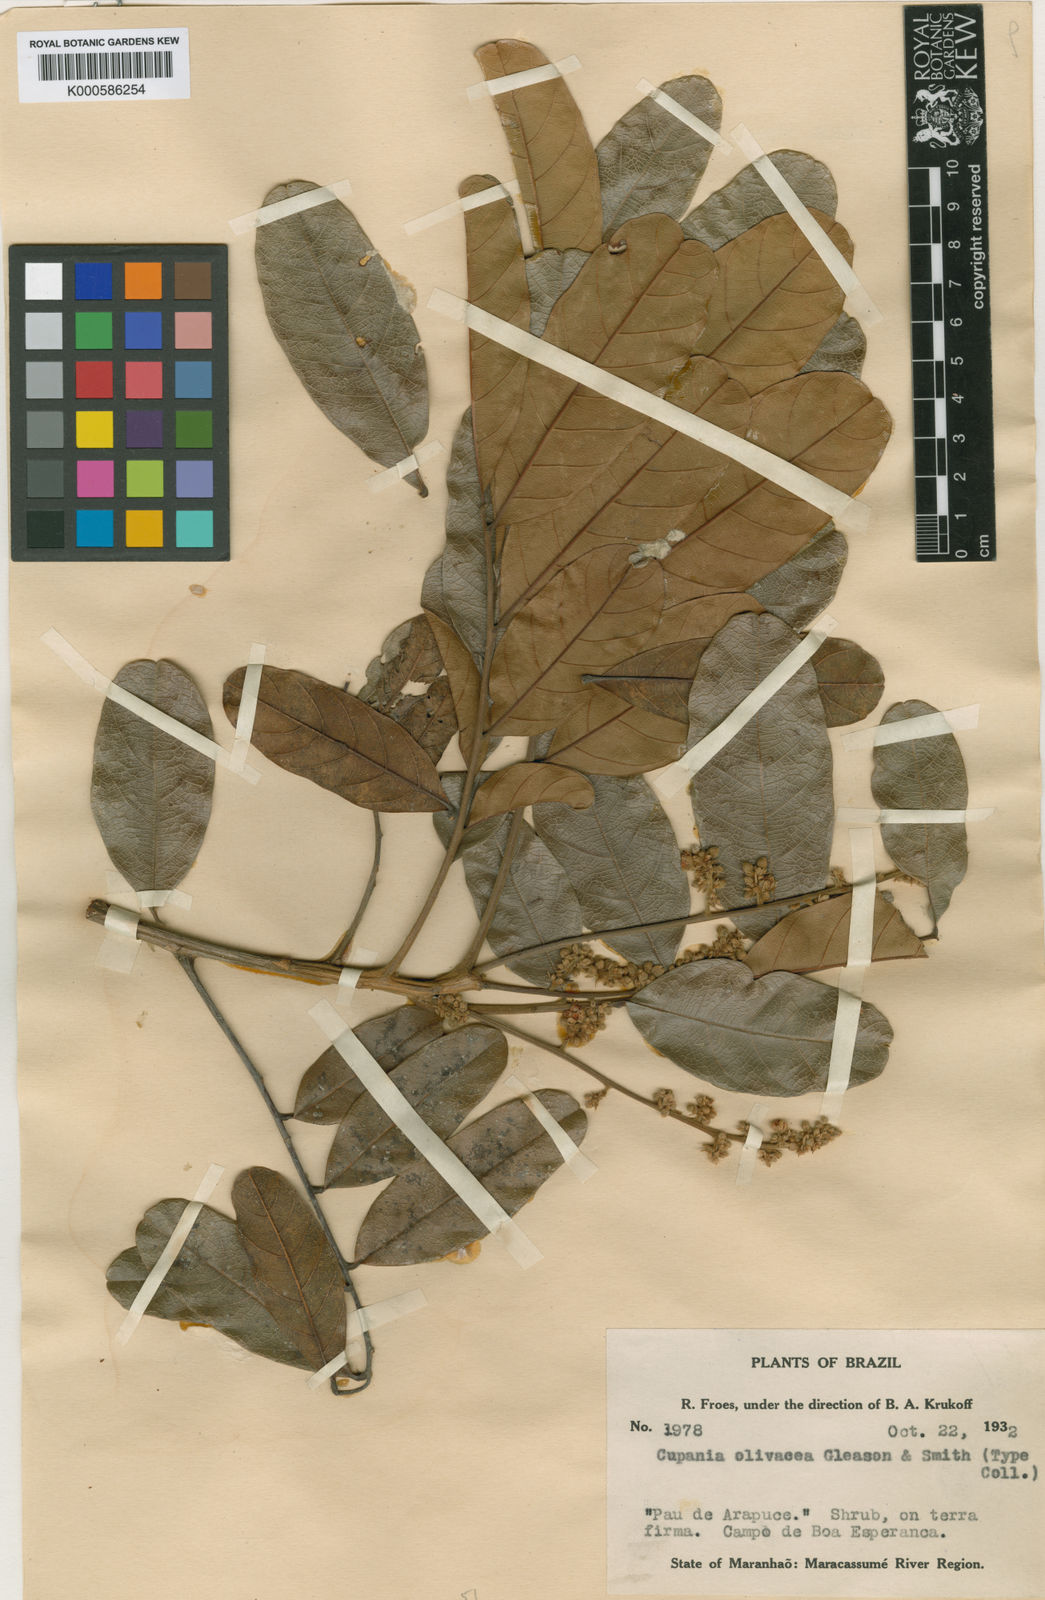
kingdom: Plantae
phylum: Tracheophyta
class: Magnoliopsida
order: Sapindales
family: Sapindaceae
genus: Cupania
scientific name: Cupania olivacea
